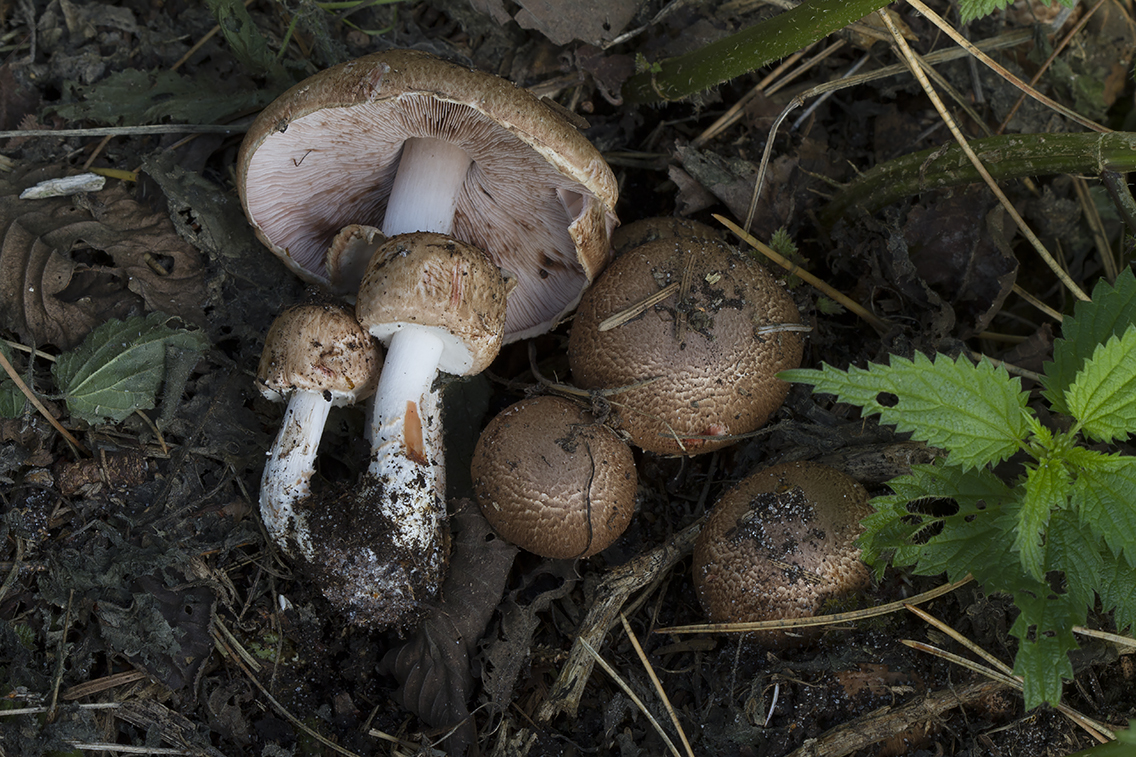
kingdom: Fungi
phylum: Basidiomycota
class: Agaricomycetes
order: Agaricales
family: Agaricaceae
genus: Agaricus
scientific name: Agaricus sylvaticus
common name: lille blod-champignon
